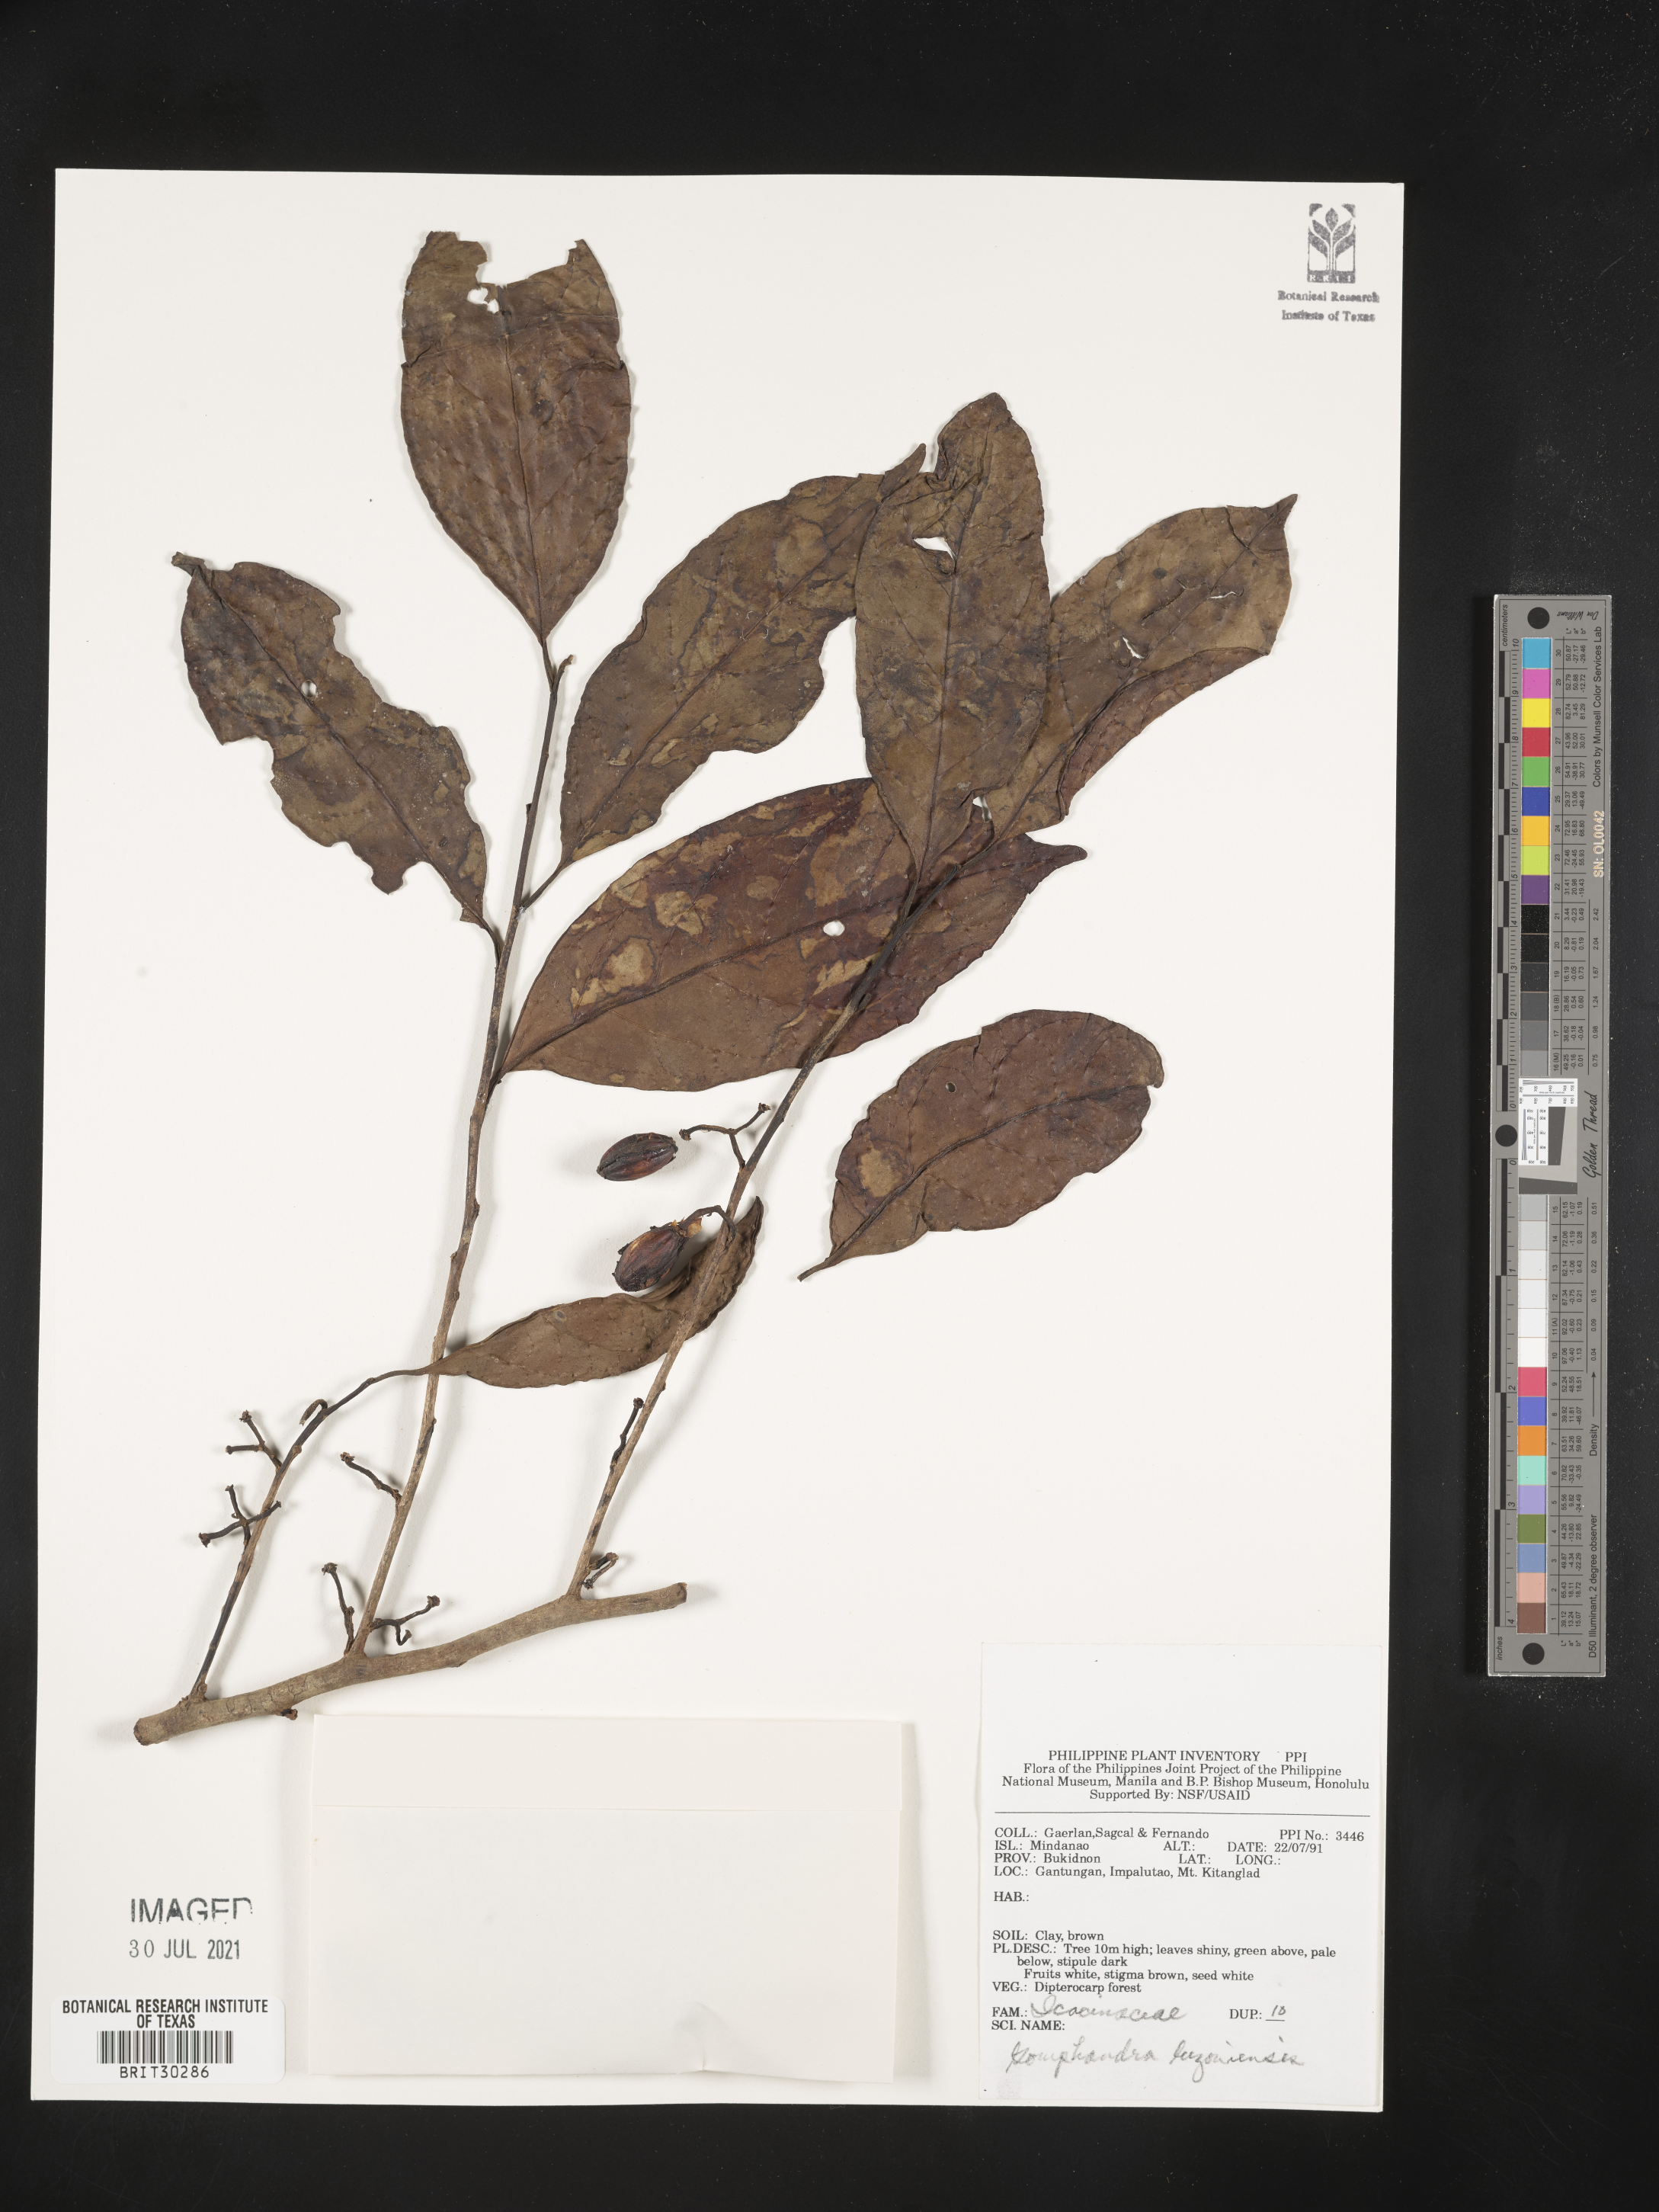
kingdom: Plantae
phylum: Tracheophyta
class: Magnoliopsida
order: Cardiopteridales
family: Stemonuraceae
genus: Gomphandra
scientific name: Gomphandra luzoniensis
